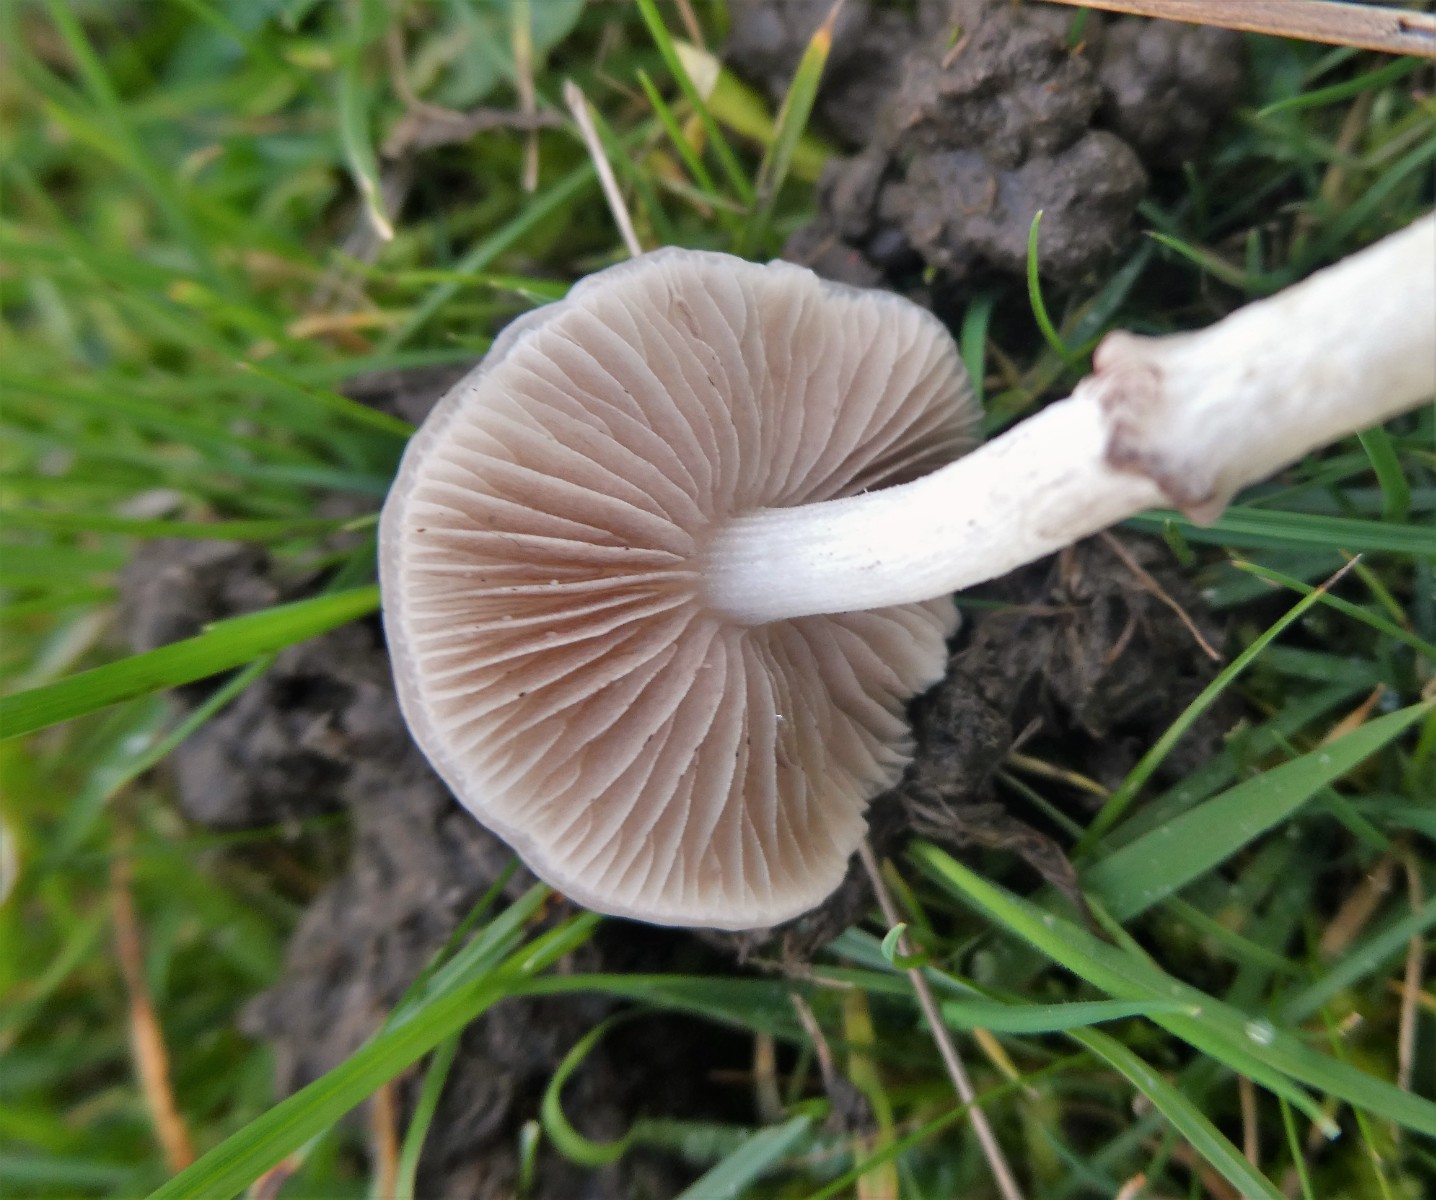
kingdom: Fungi
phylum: Basidiomycota
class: Agaricomycetes
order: Agaricales
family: Strophariaceae
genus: Stropharia
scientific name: Stropharia inuncta
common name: lillabrun bredblad
